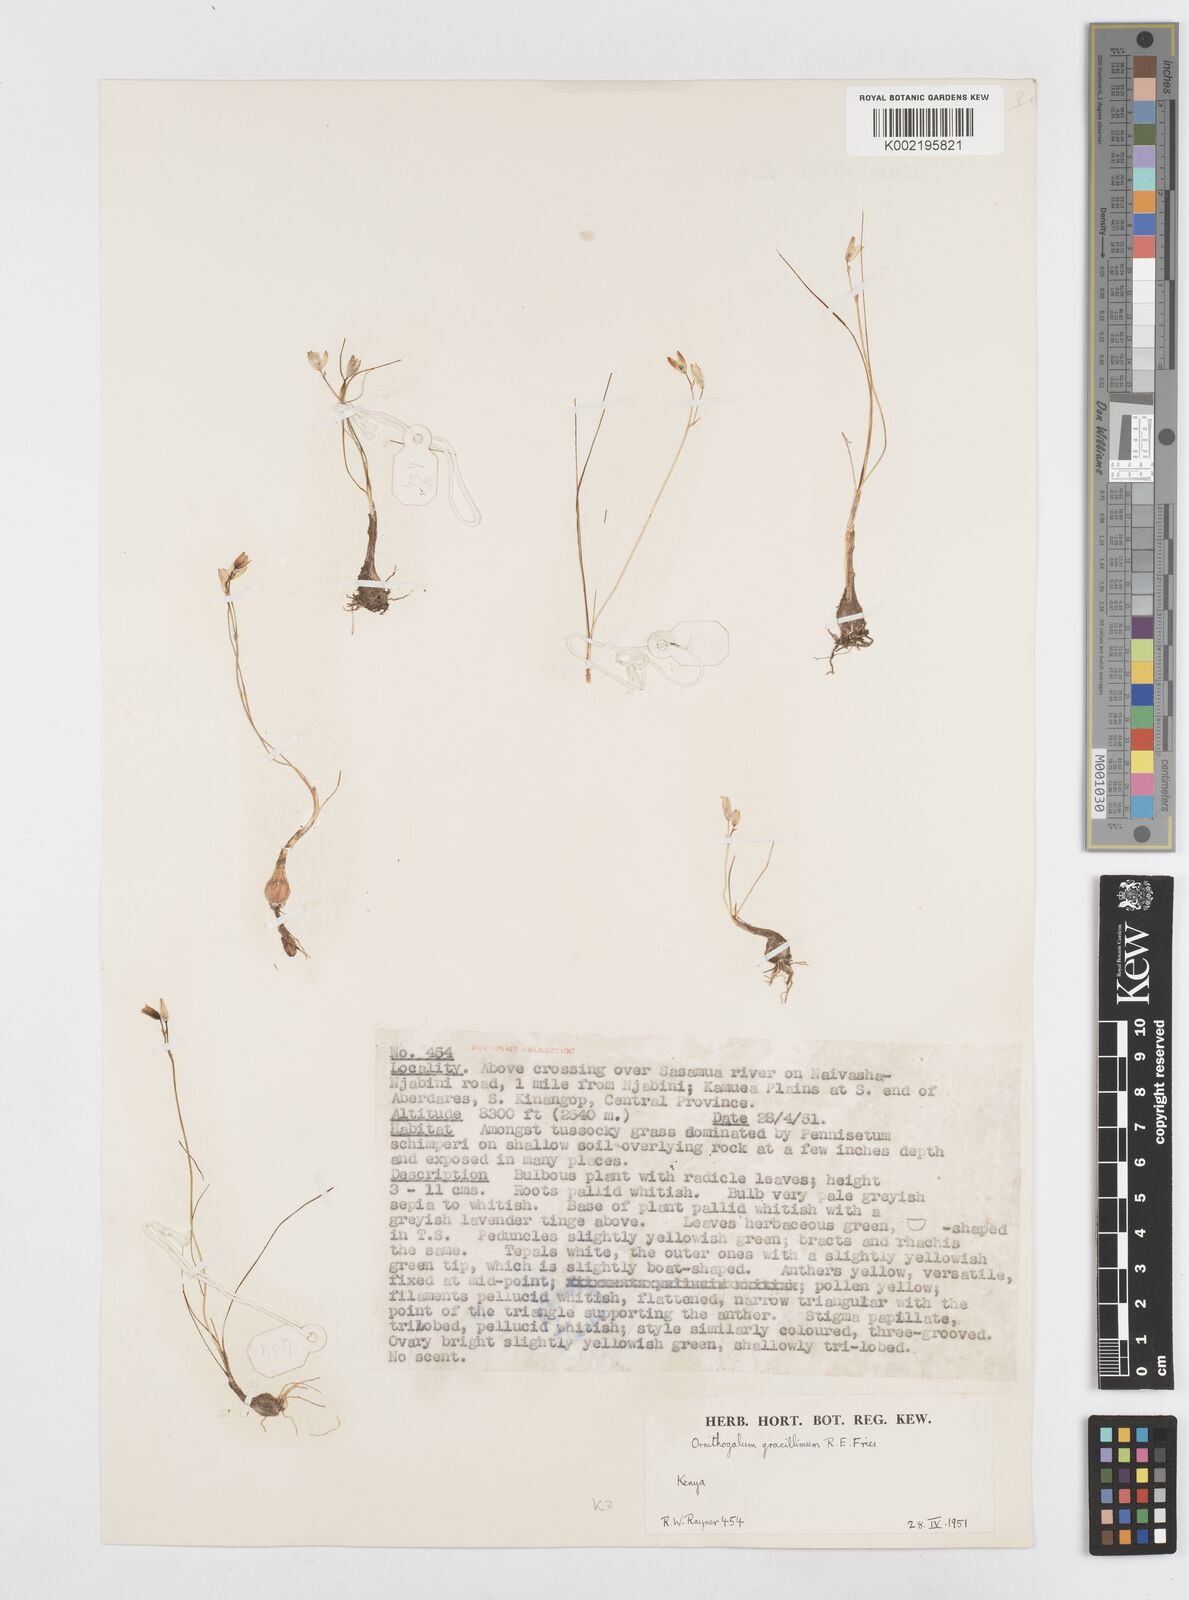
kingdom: Plantae
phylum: Tracheophyta
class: Liliopsida
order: Asparagales
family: Asparagaceae
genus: Ornithogalum
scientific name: Ornithogalum gracillimum
